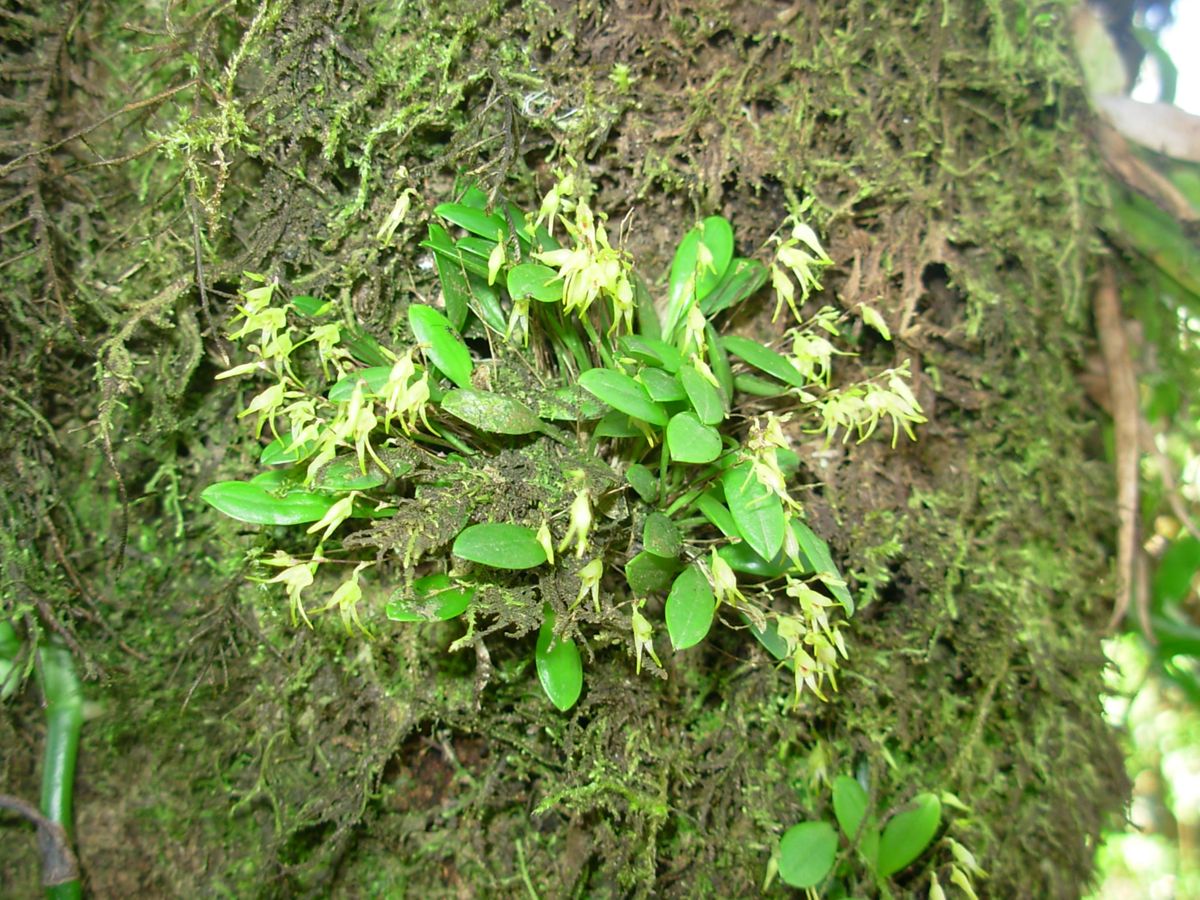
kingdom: Plantae
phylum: Tracheophyta
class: Liliopsida
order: Asparagales
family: Orchidaceae
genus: Specklinia
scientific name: Specklinia fuegi
